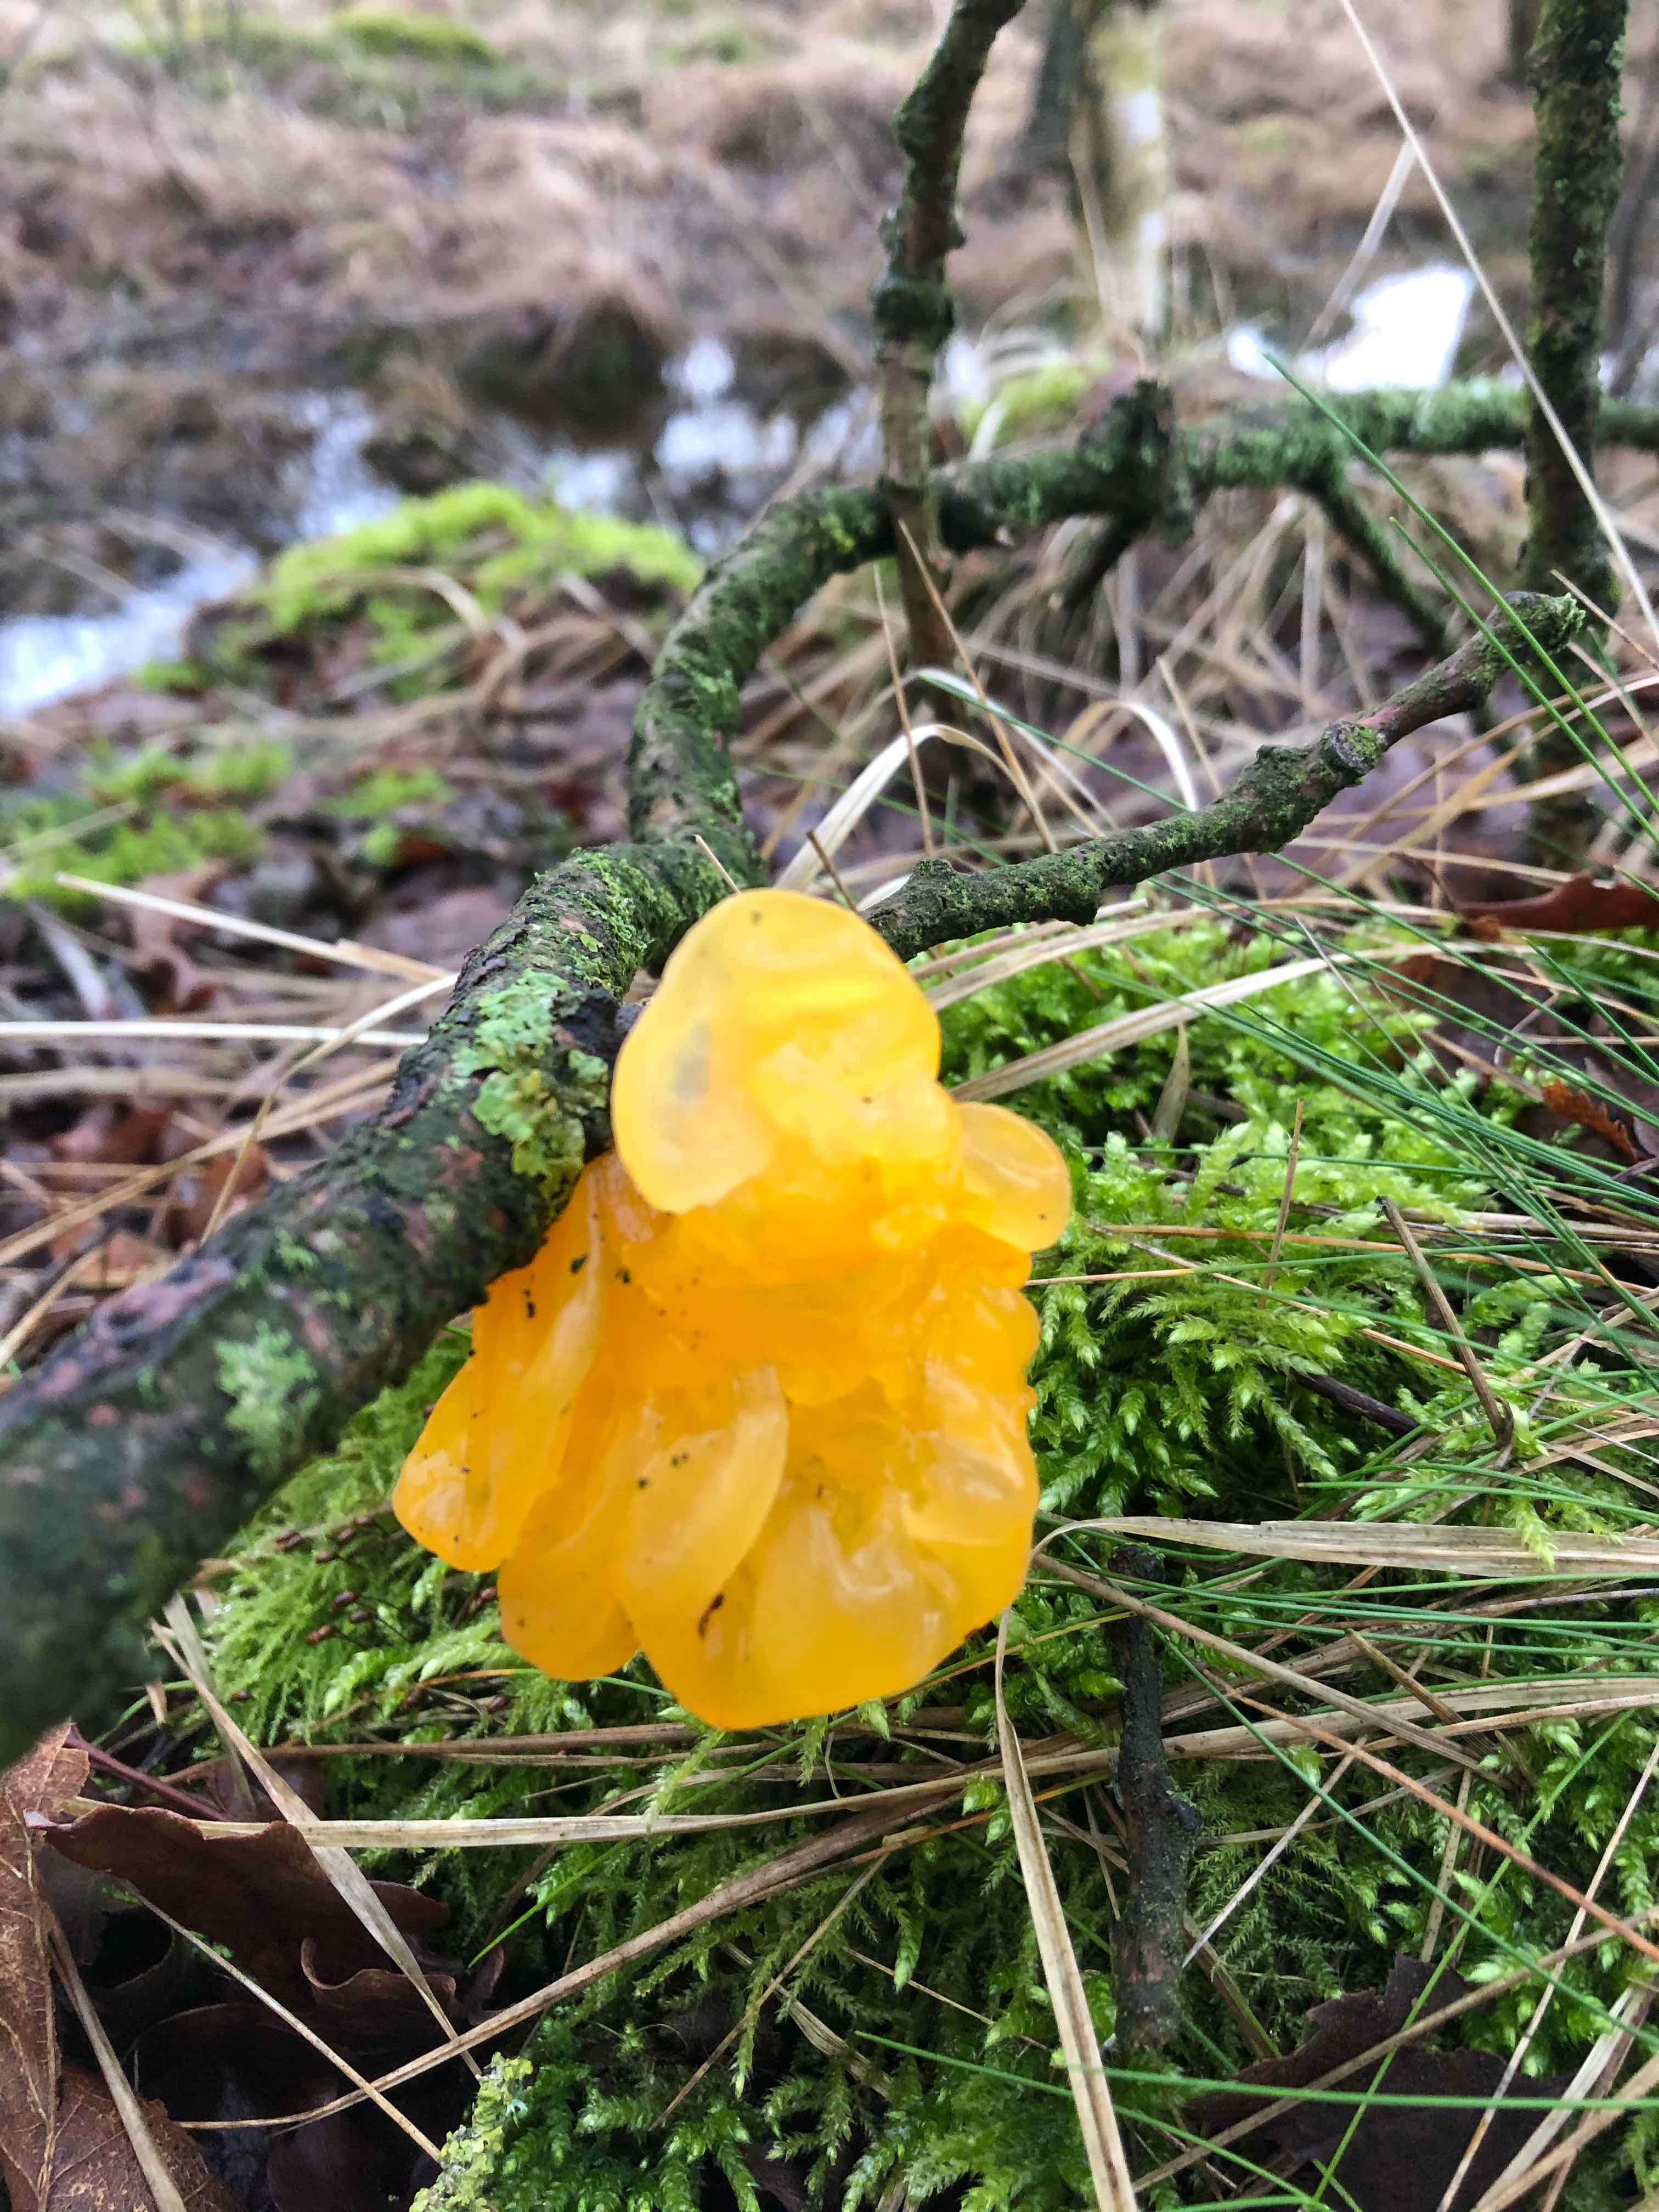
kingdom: Fungi
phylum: Basidiomycota
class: Tremellomycetes
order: Tremellales
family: Tremellaceae
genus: Tremella
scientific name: Tremella mesenterica
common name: gul bævresvamp
